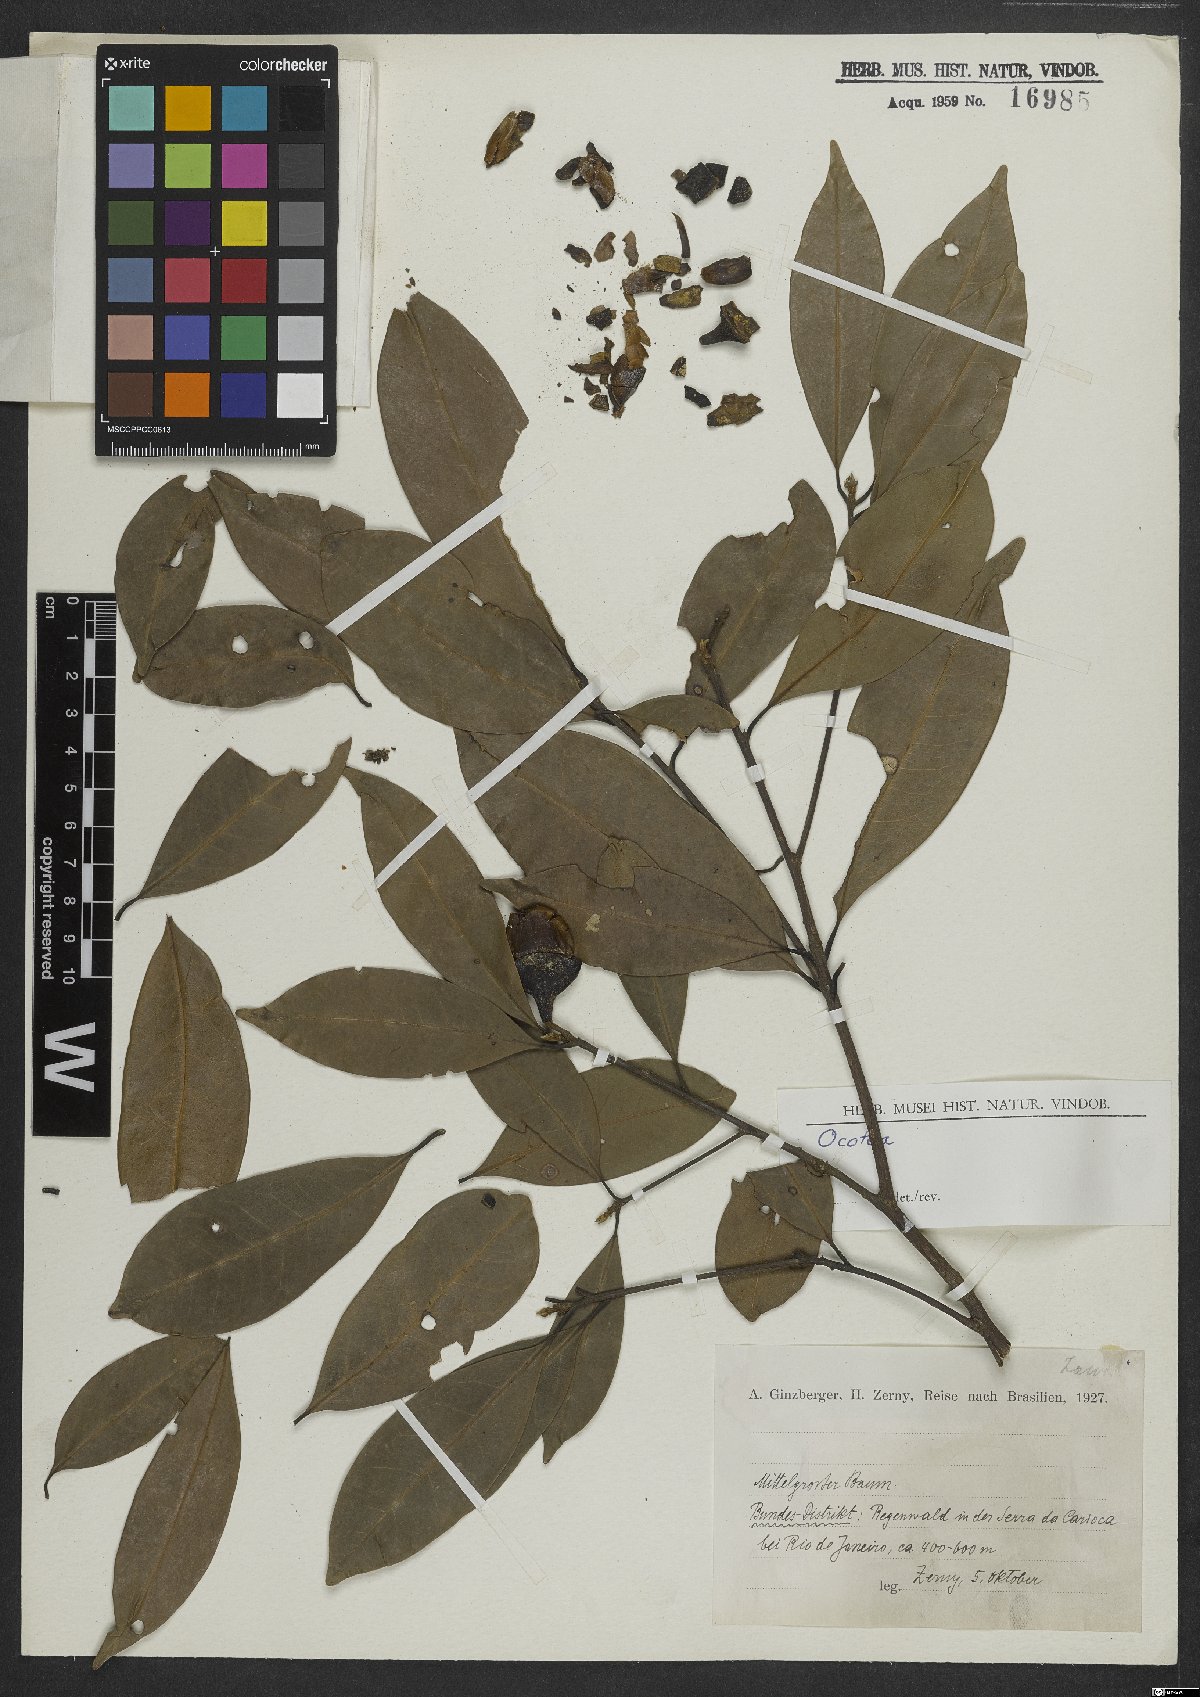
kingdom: Plantae
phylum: Tracheophyta
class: Magnoliopsida
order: Laurales
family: Lauraceae
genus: Ocotea
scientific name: Ocotea
